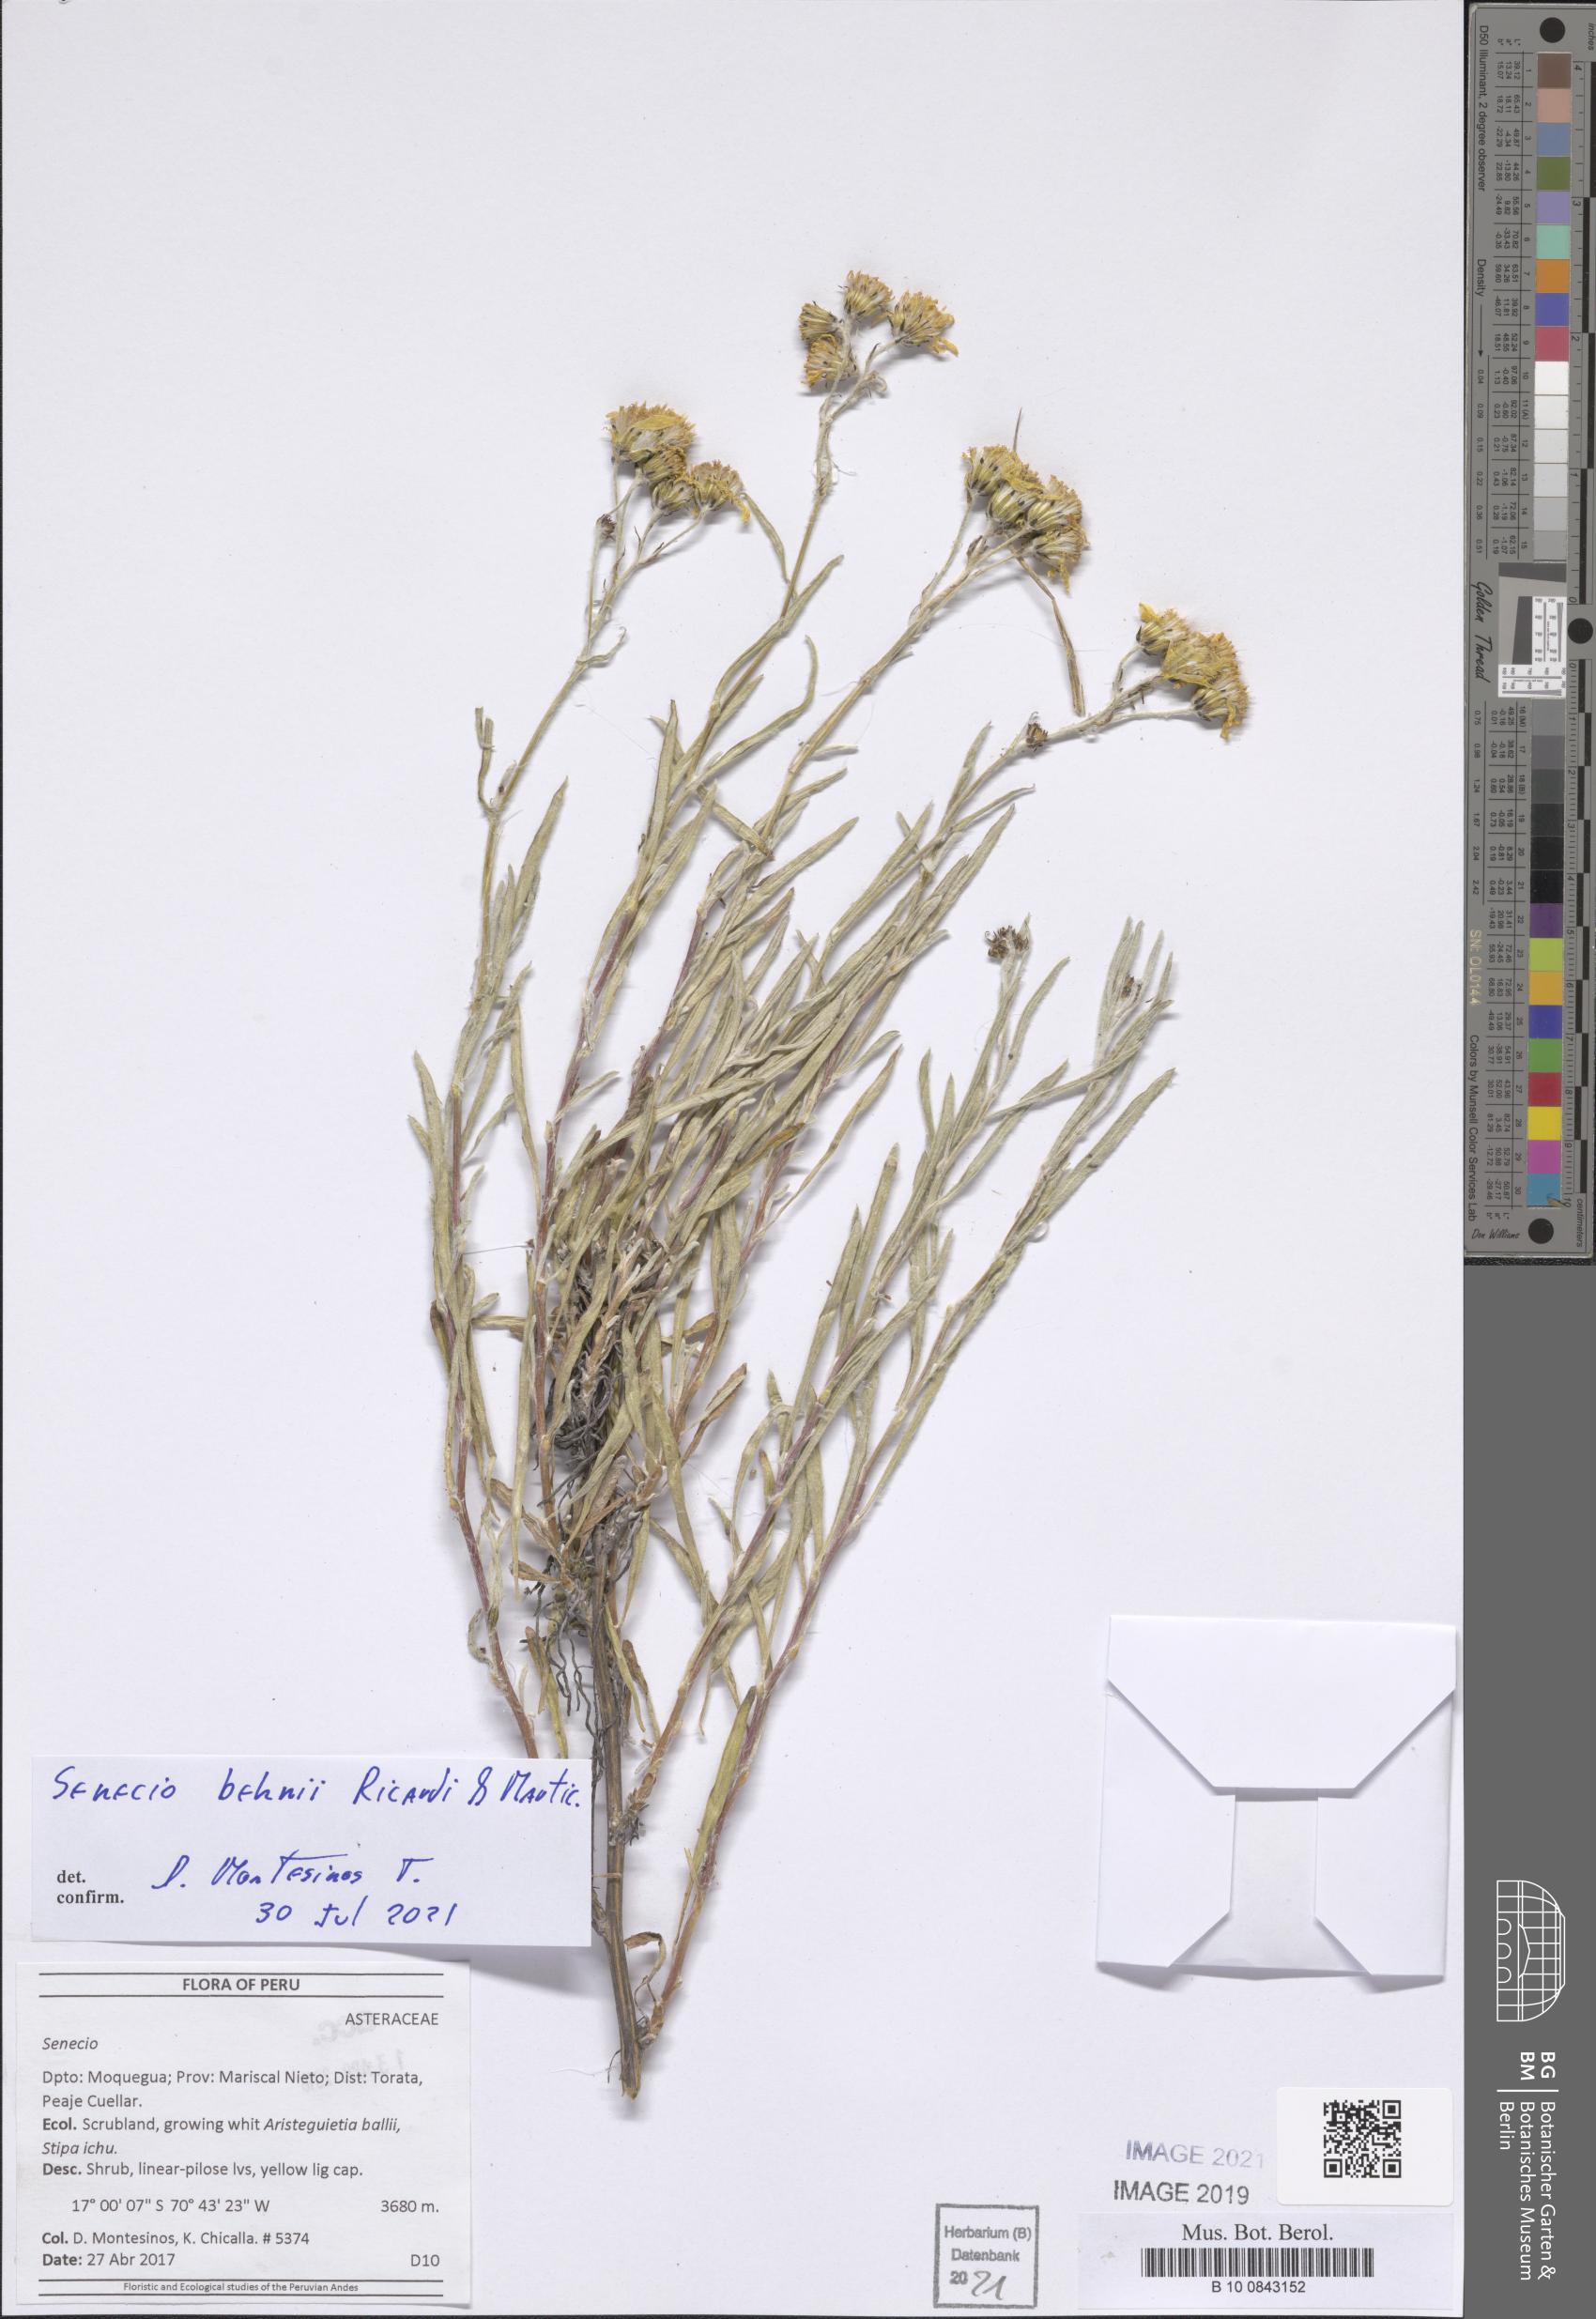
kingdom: Plantae
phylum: Tracheophyta
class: Magnoliopsida
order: Asterales
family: Asteraceae
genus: Senecio
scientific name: Senecio behnii
